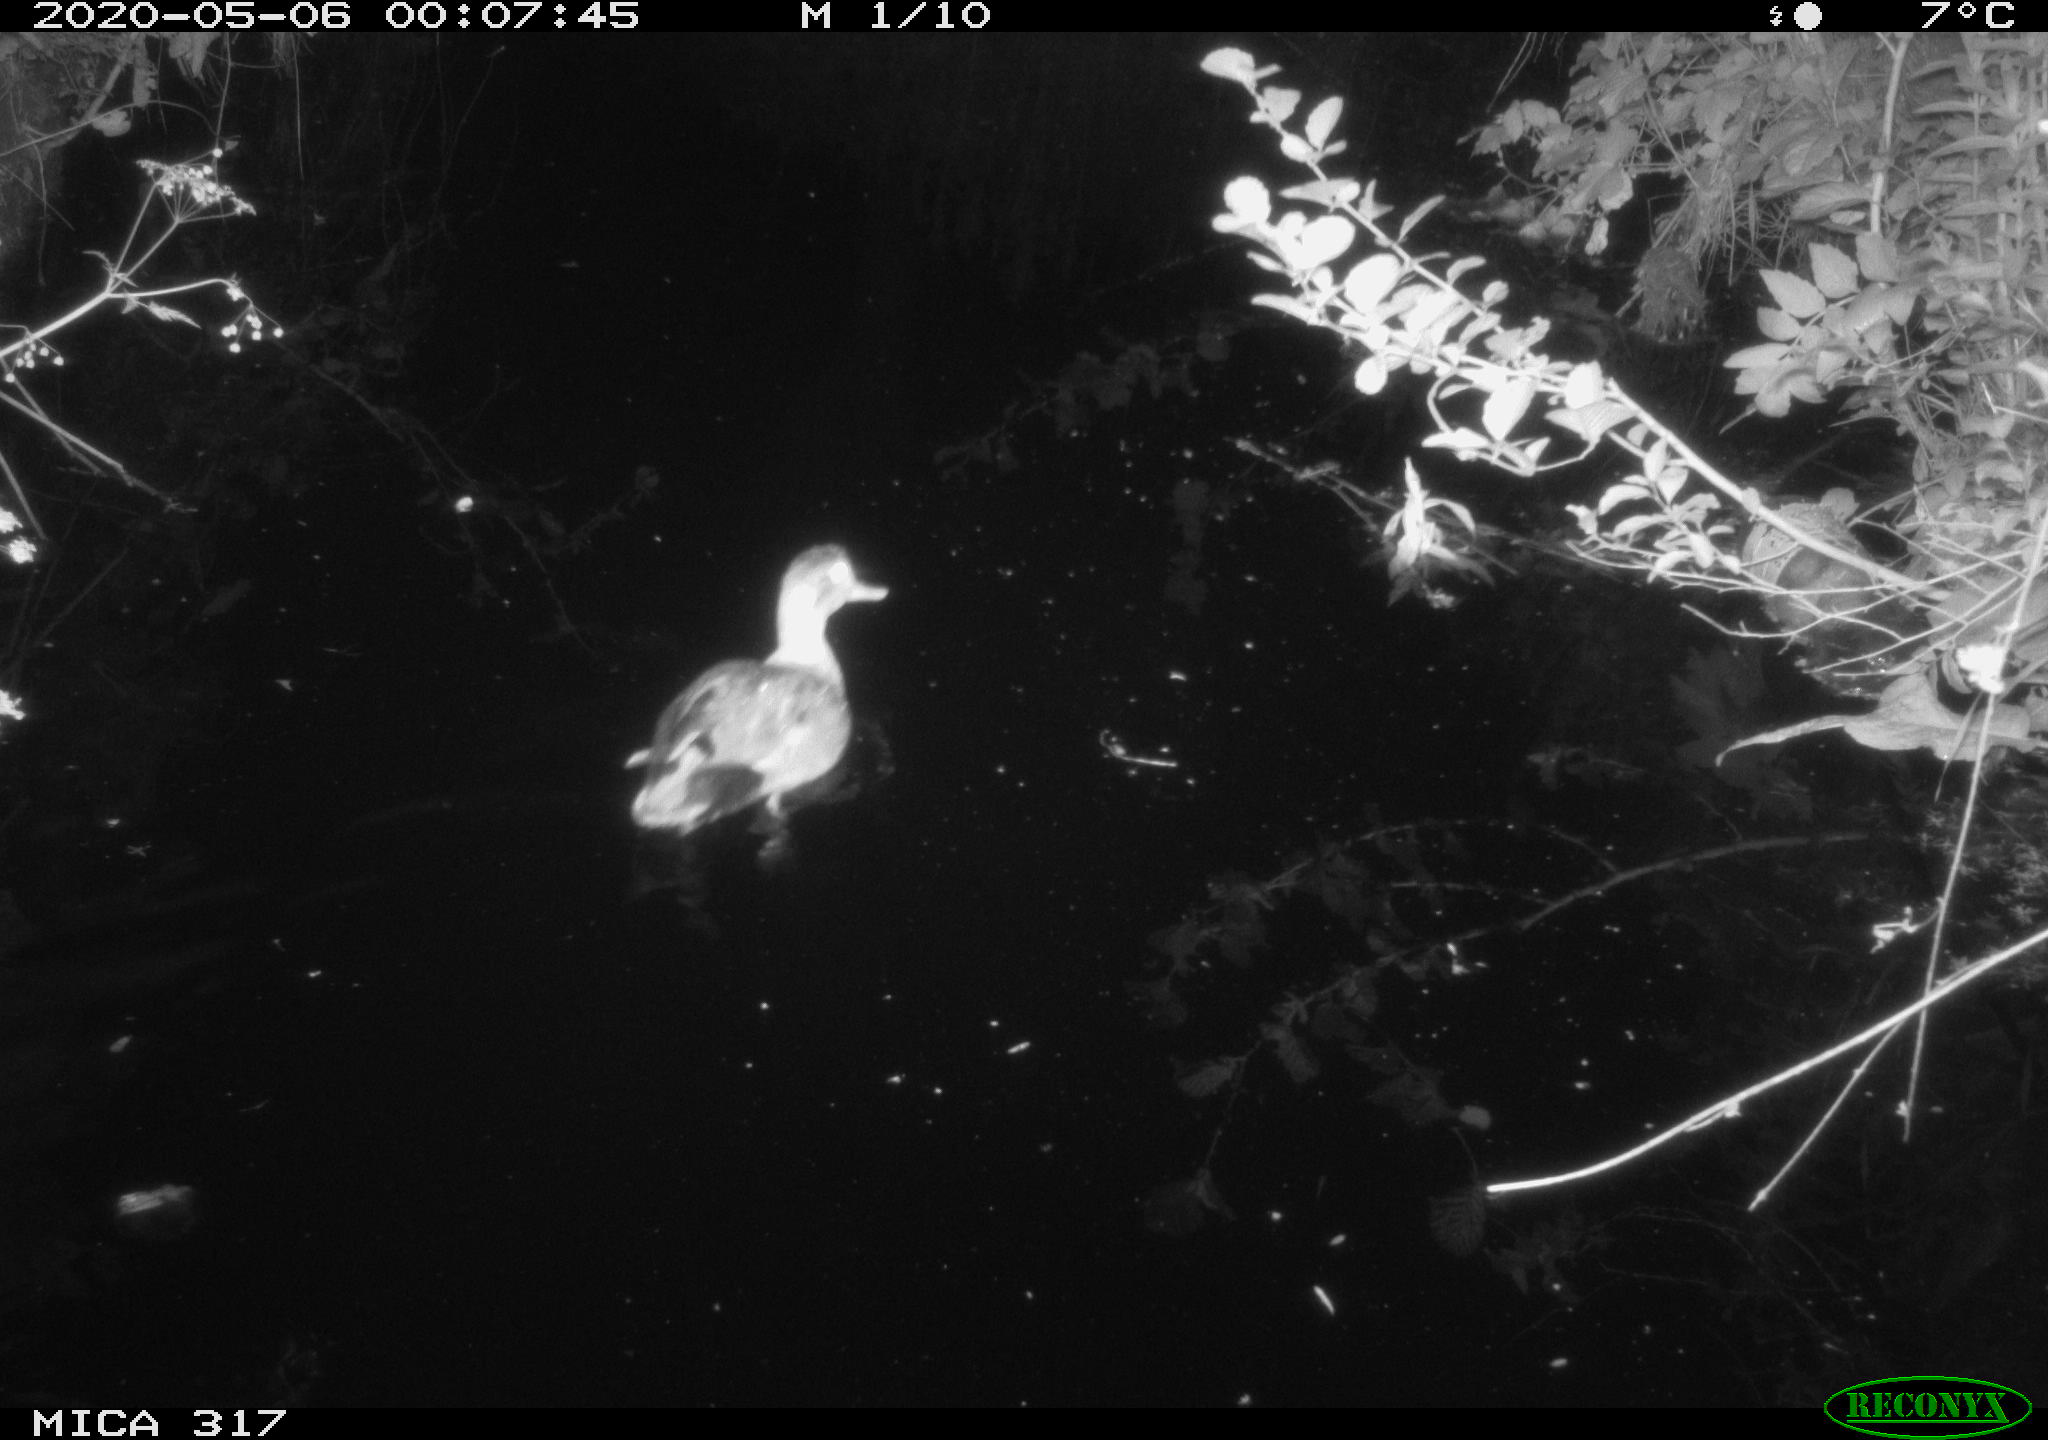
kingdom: Animalia
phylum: Chordata
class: Aves
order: Anseriformes
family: Anatidae
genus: Anas
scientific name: Anas platyrhynchos
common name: Mallard
